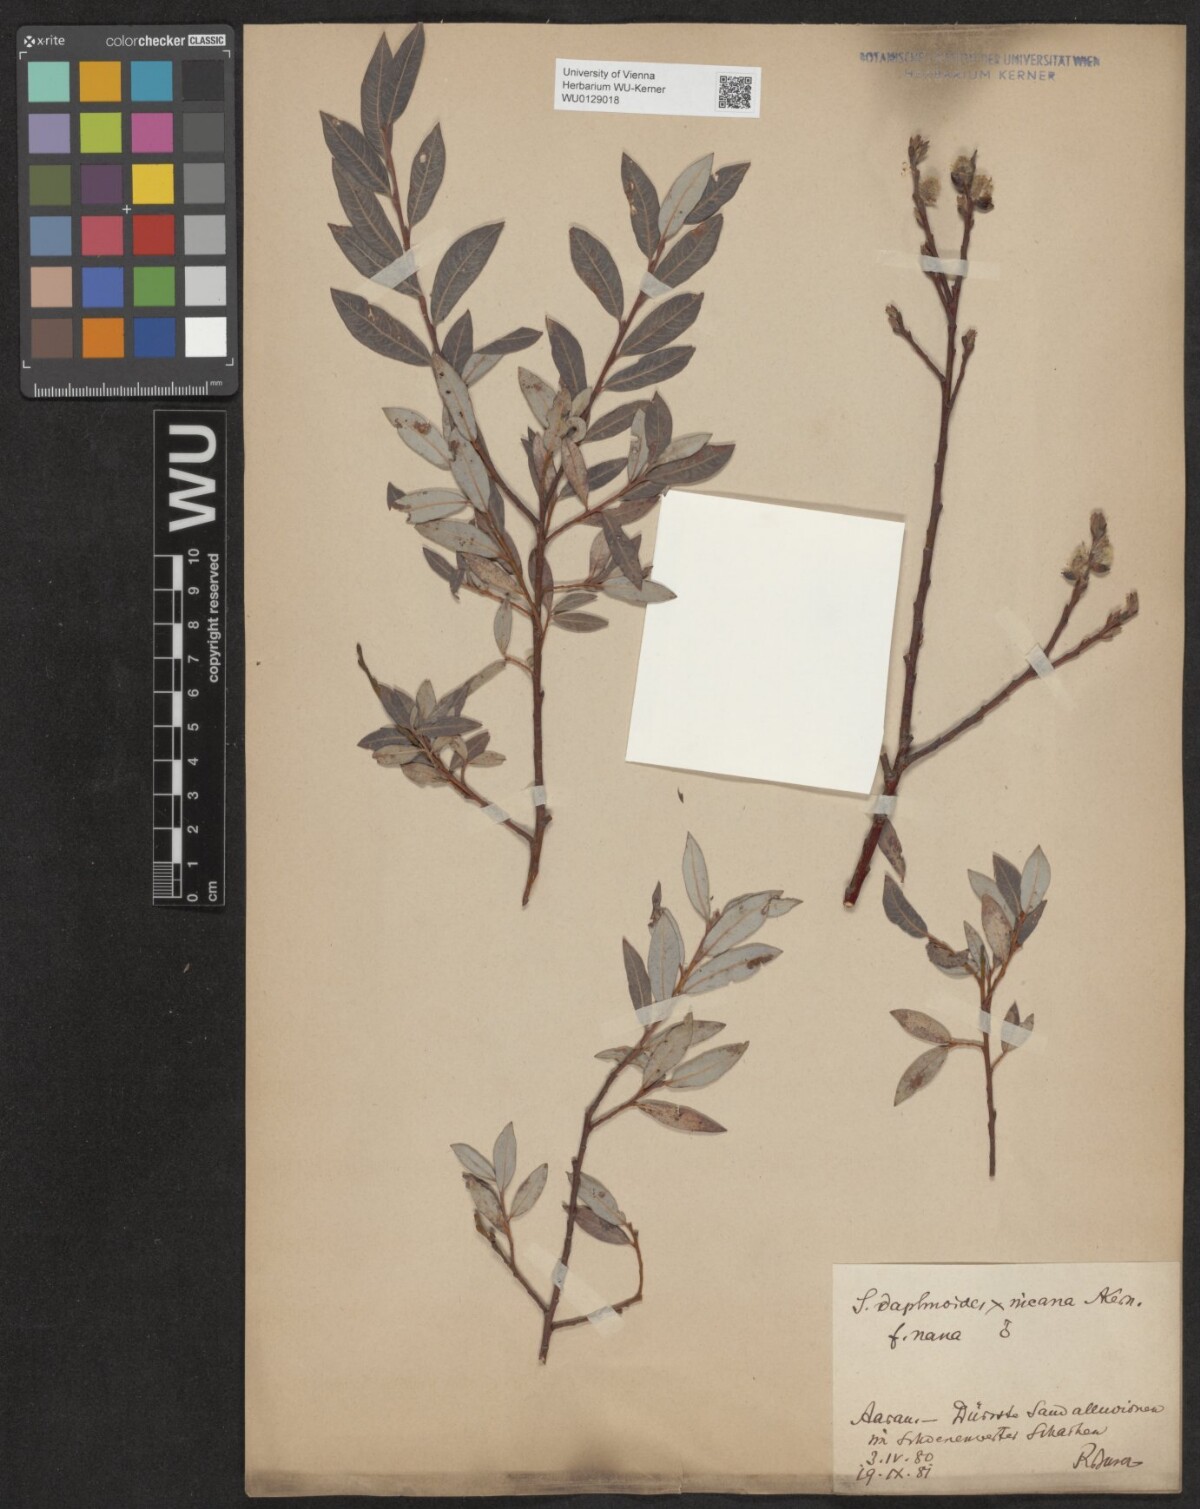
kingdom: Plantae
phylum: Tracheophyta
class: Magnoliopsida
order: Malpighiales
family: Salicaceae
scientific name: Salicaceae
